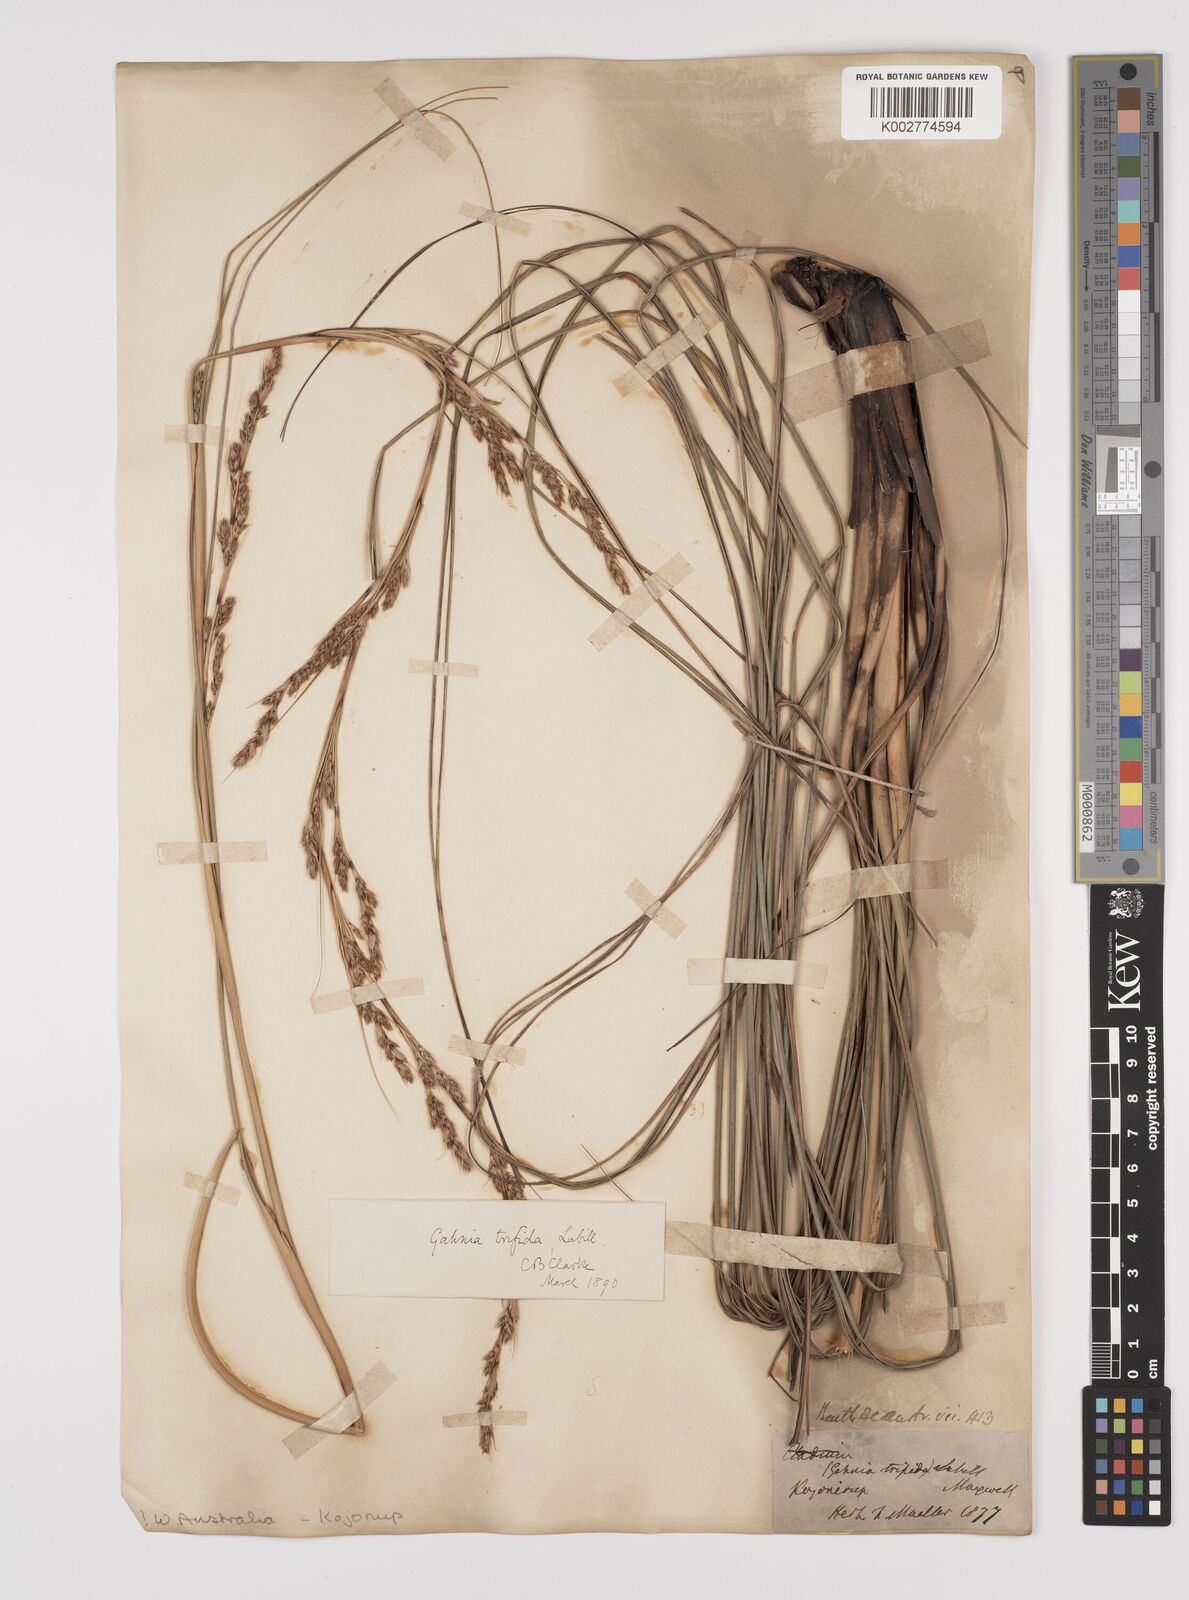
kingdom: Plantae
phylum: Tracheophyta
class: Liliopsida
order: Poales
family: Cyperaceae
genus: Gahnia
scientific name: Gahnia filum
